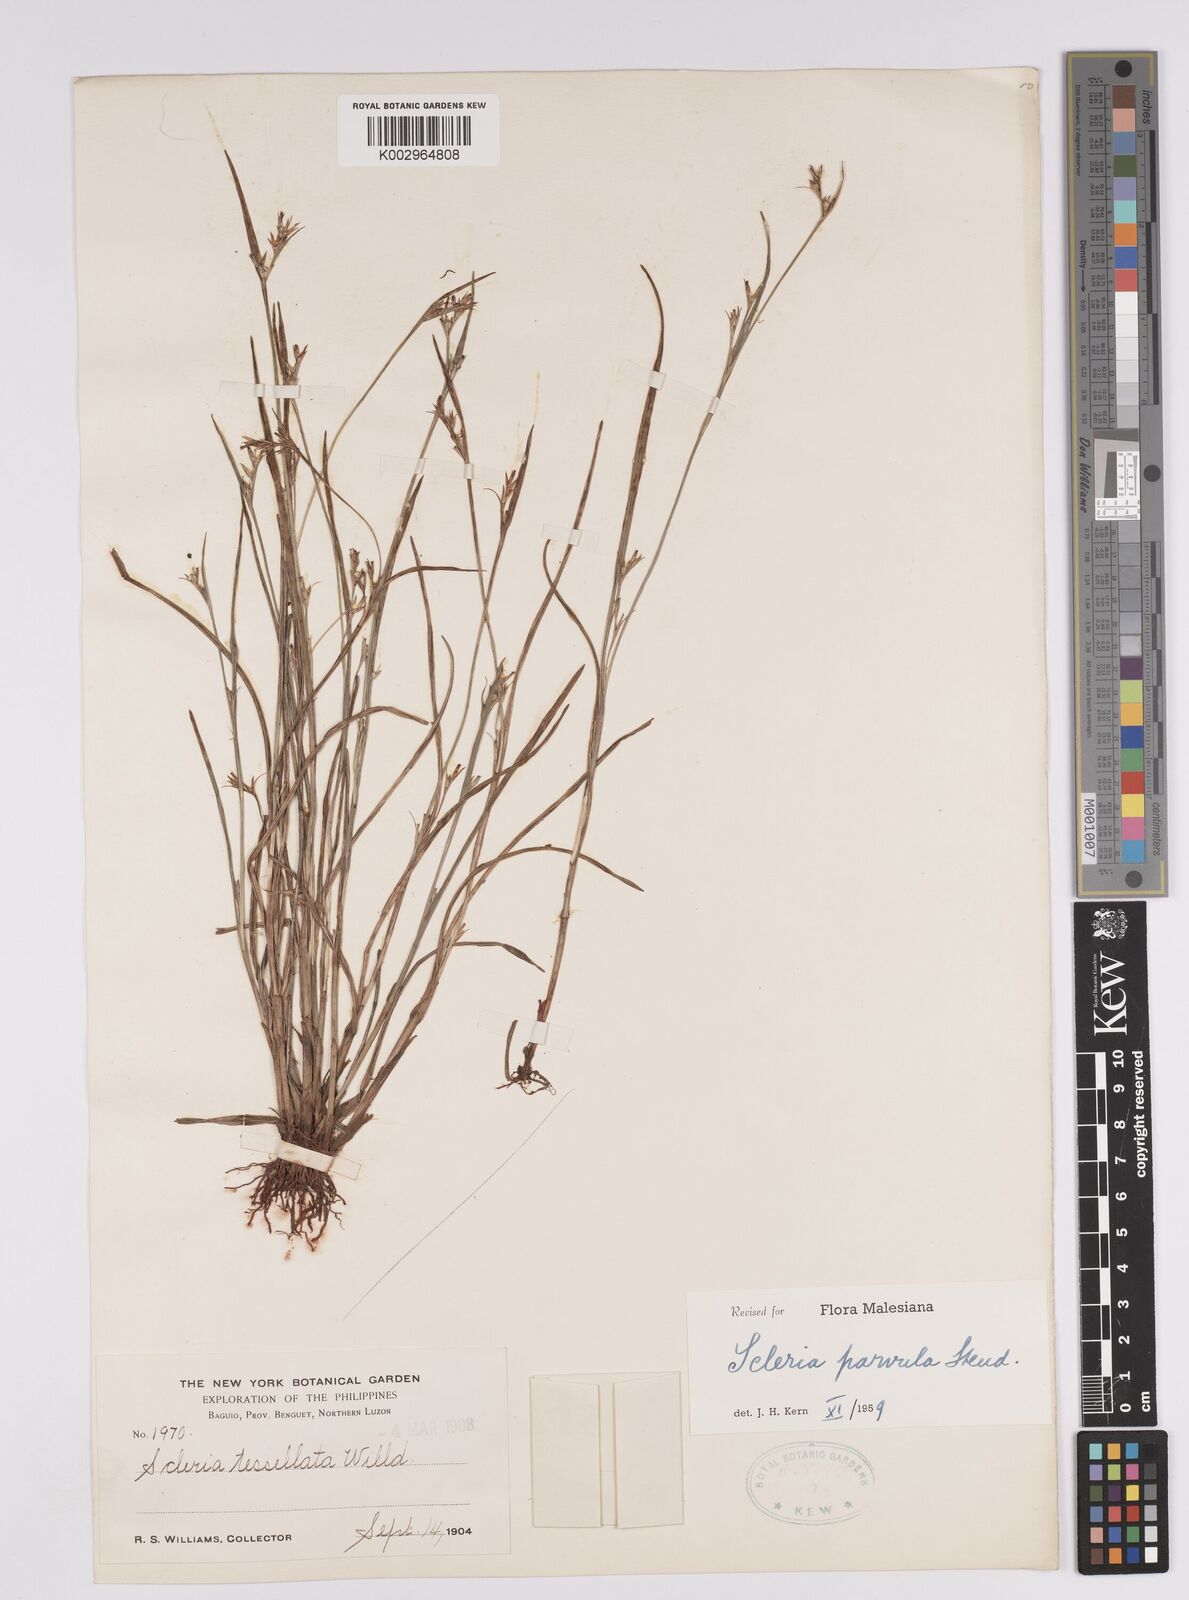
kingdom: Plantae
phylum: Tracheophyta
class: Liliopsida
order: Poales
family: Cyperaceae
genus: Scleria
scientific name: Scleria parvula
